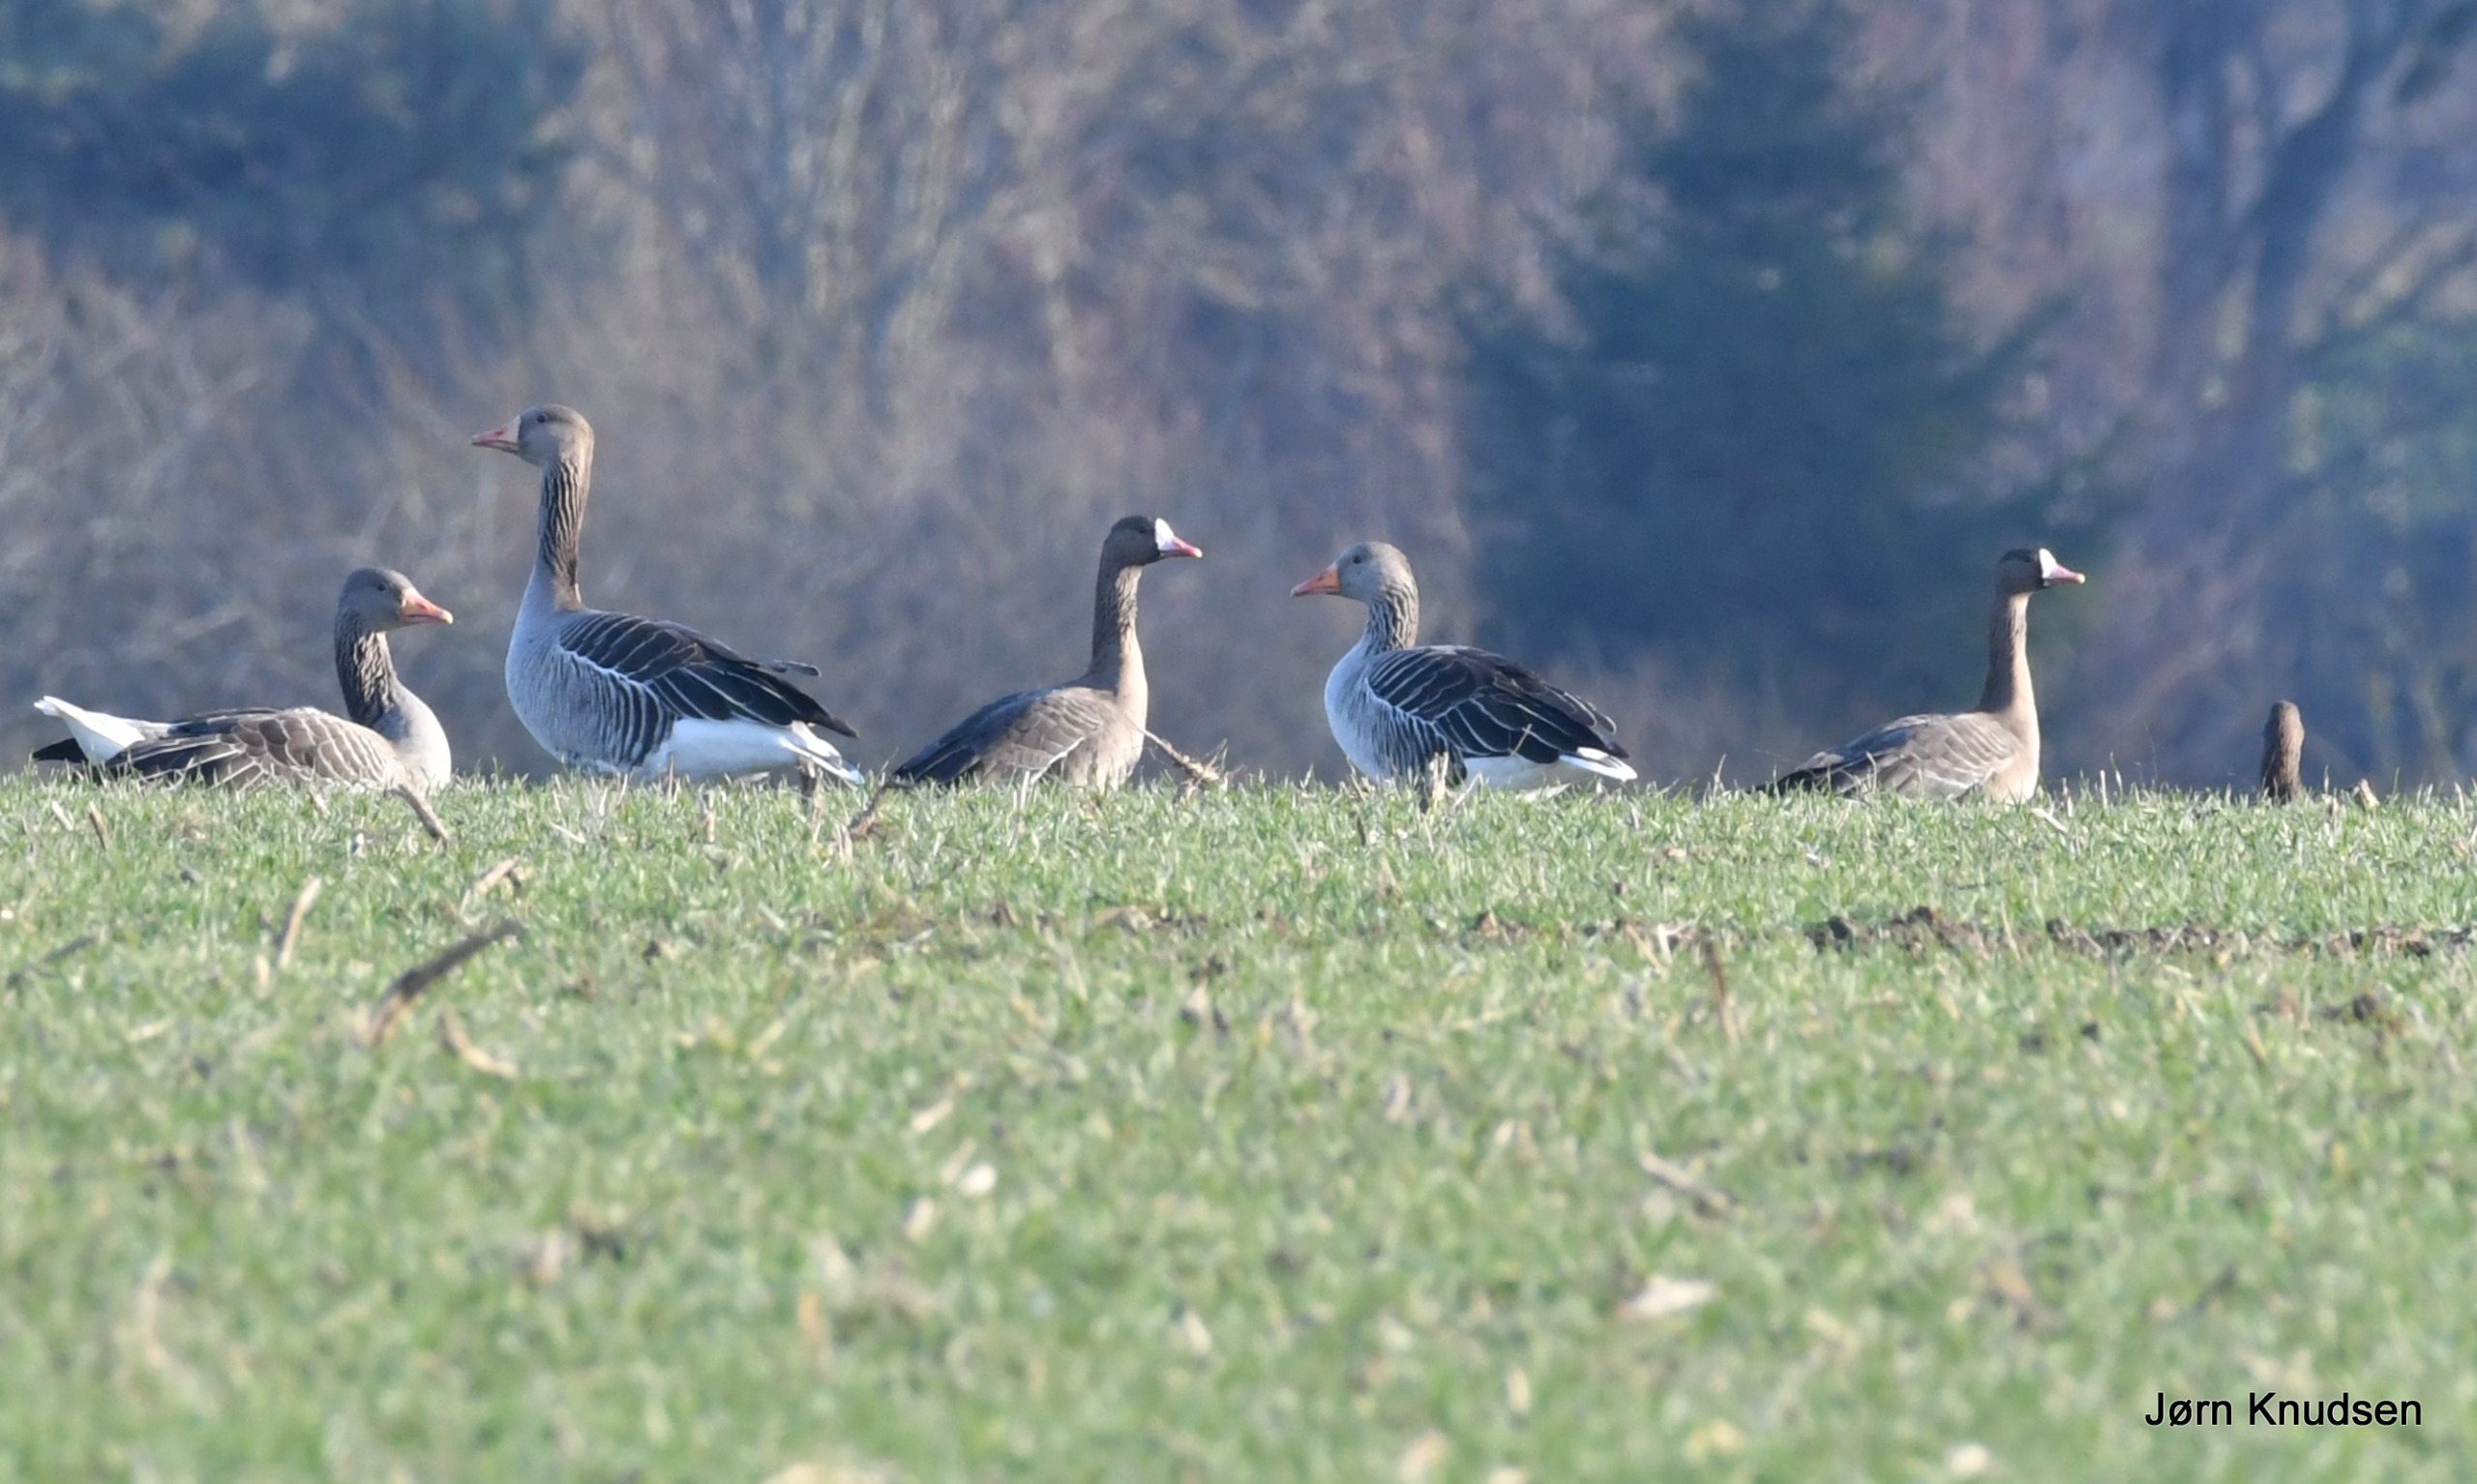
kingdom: Animalia
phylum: Chordata
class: Aves
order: Anseriformes
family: Anatidae
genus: Anser
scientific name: Anser albifrons
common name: Blisgås
